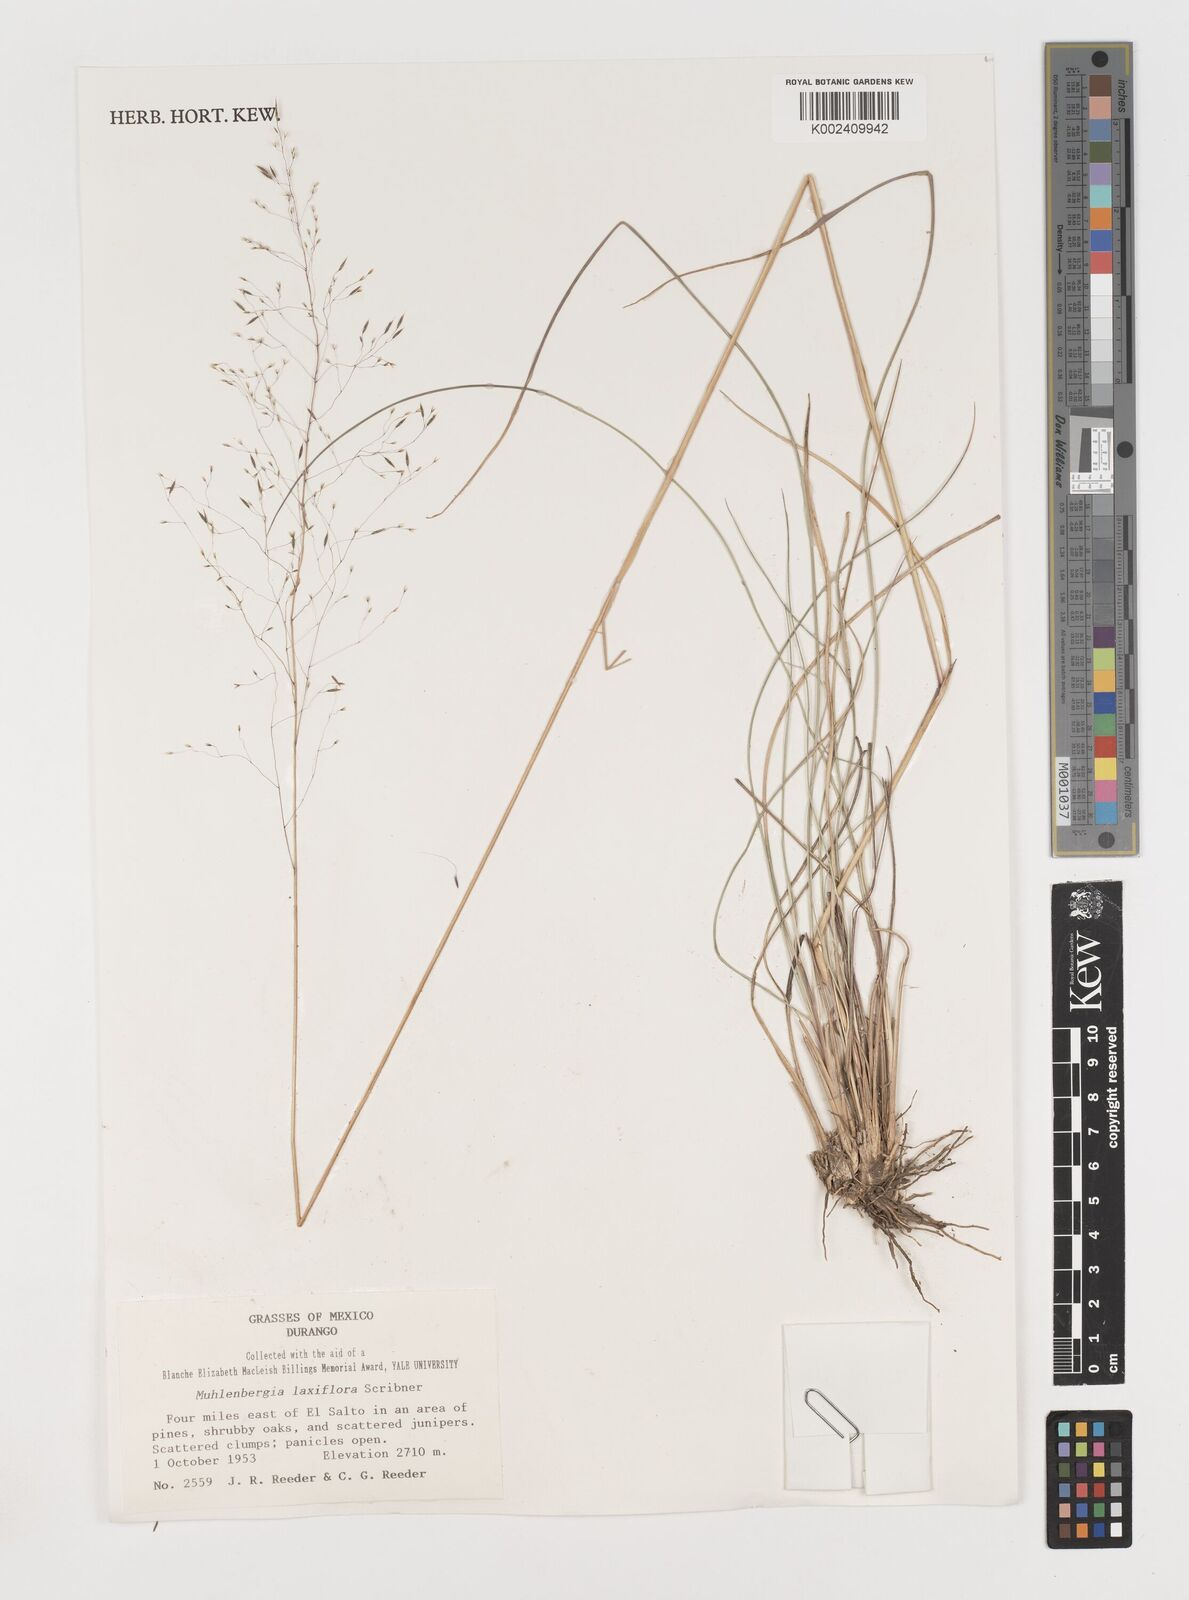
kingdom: Plantae
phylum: Tracheophyta
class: Liliopsida
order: Poales
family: Poaceae
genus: Muhlenbergia
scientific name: Muhlenbergia mucronata
